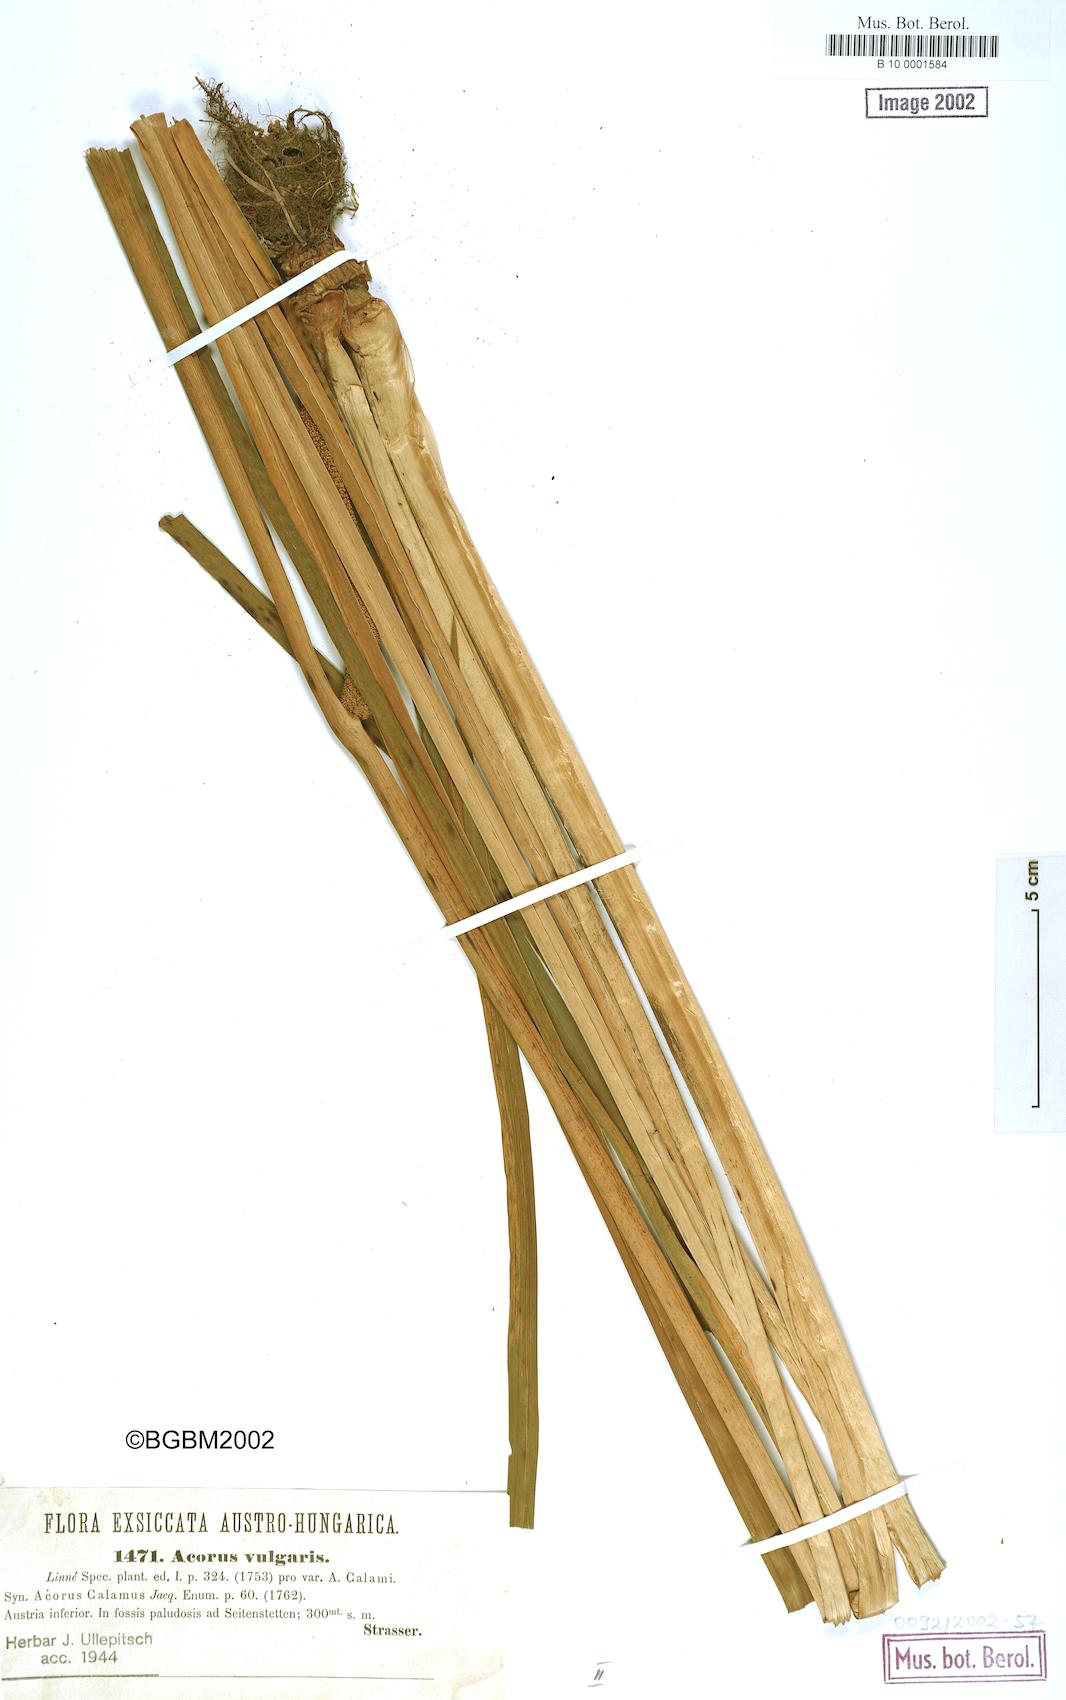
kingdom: Plantae
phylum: Tracheophyta
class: Liliopsida
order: Acorales
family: Acoraceae
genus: Acorus
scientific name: Acorus calamus
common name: Sweet-flag
